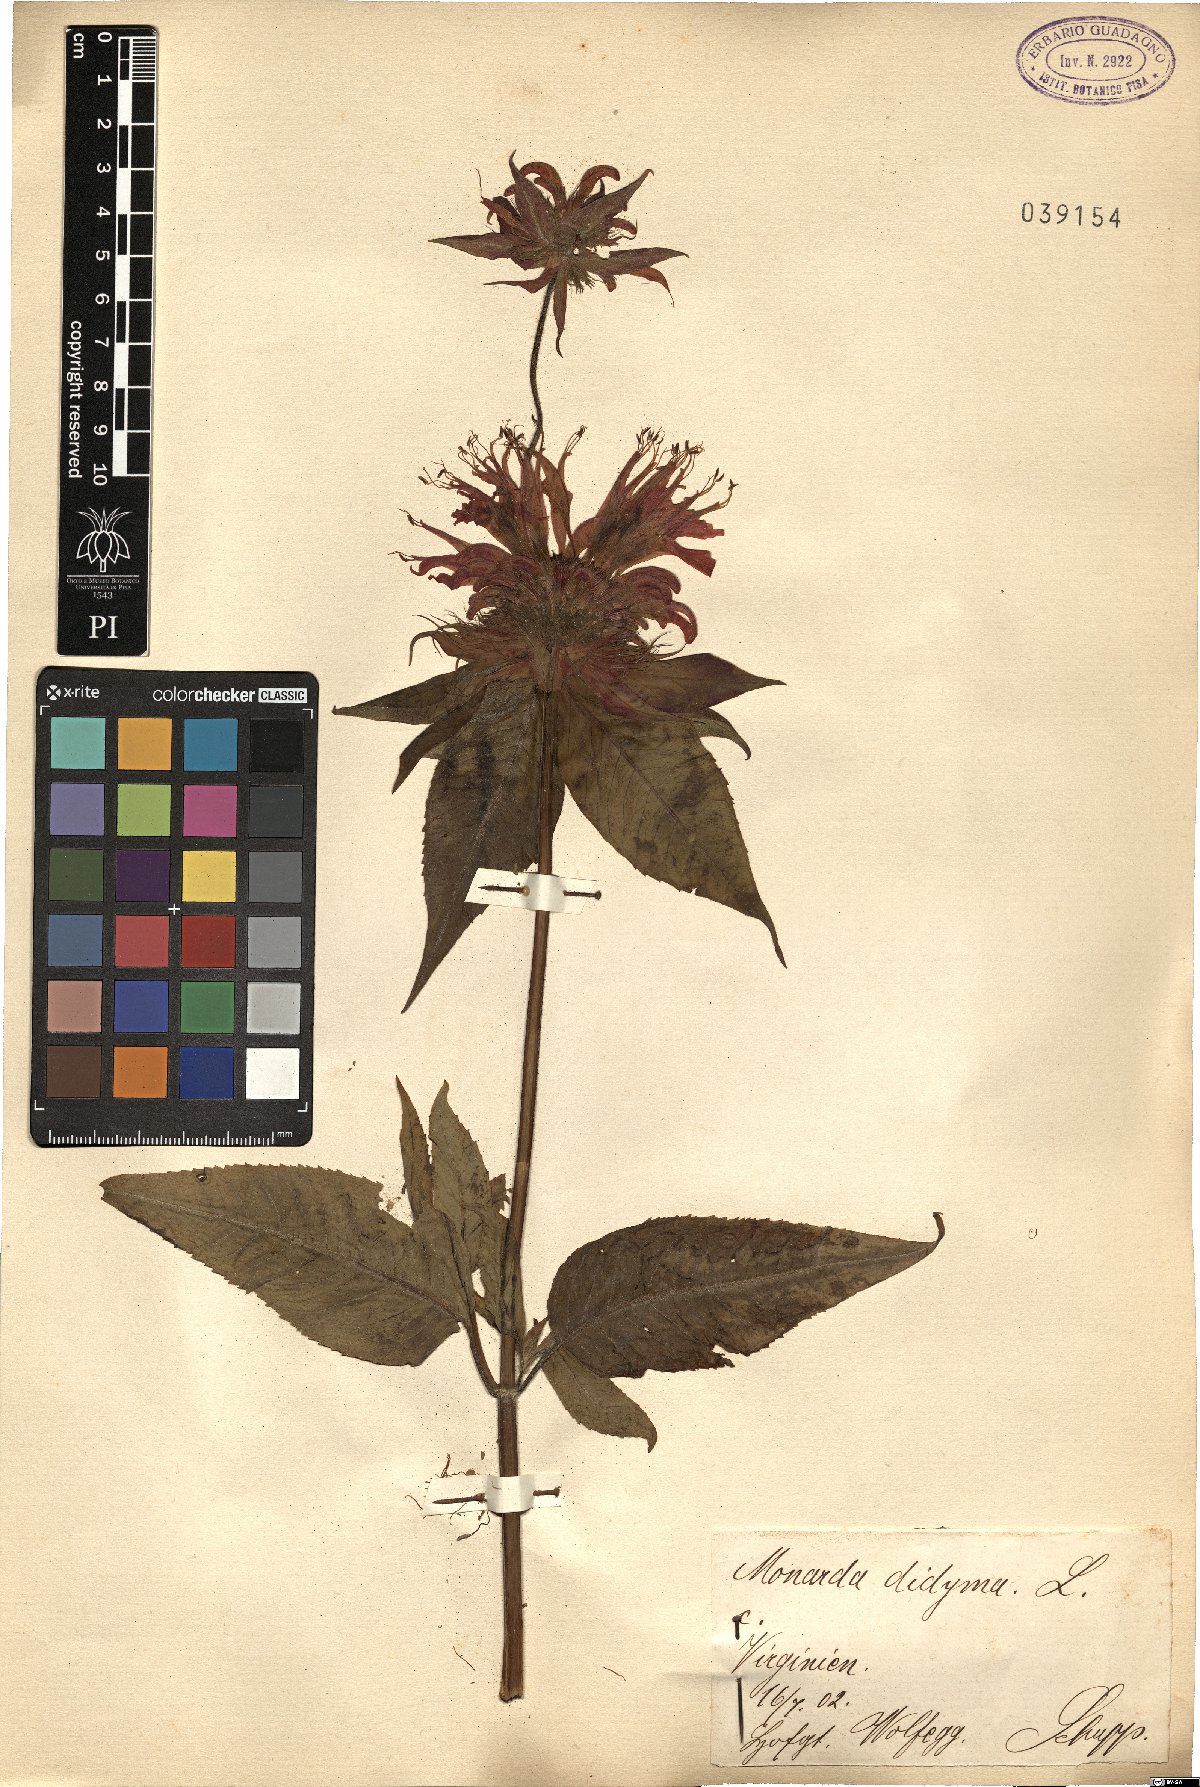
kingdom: Plantae
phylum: Tracheophyta
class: Magnoliopsida
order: Lamiales
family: Lamiaceae
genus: Monarda
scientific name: Monarda didyma
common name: Beebalm
